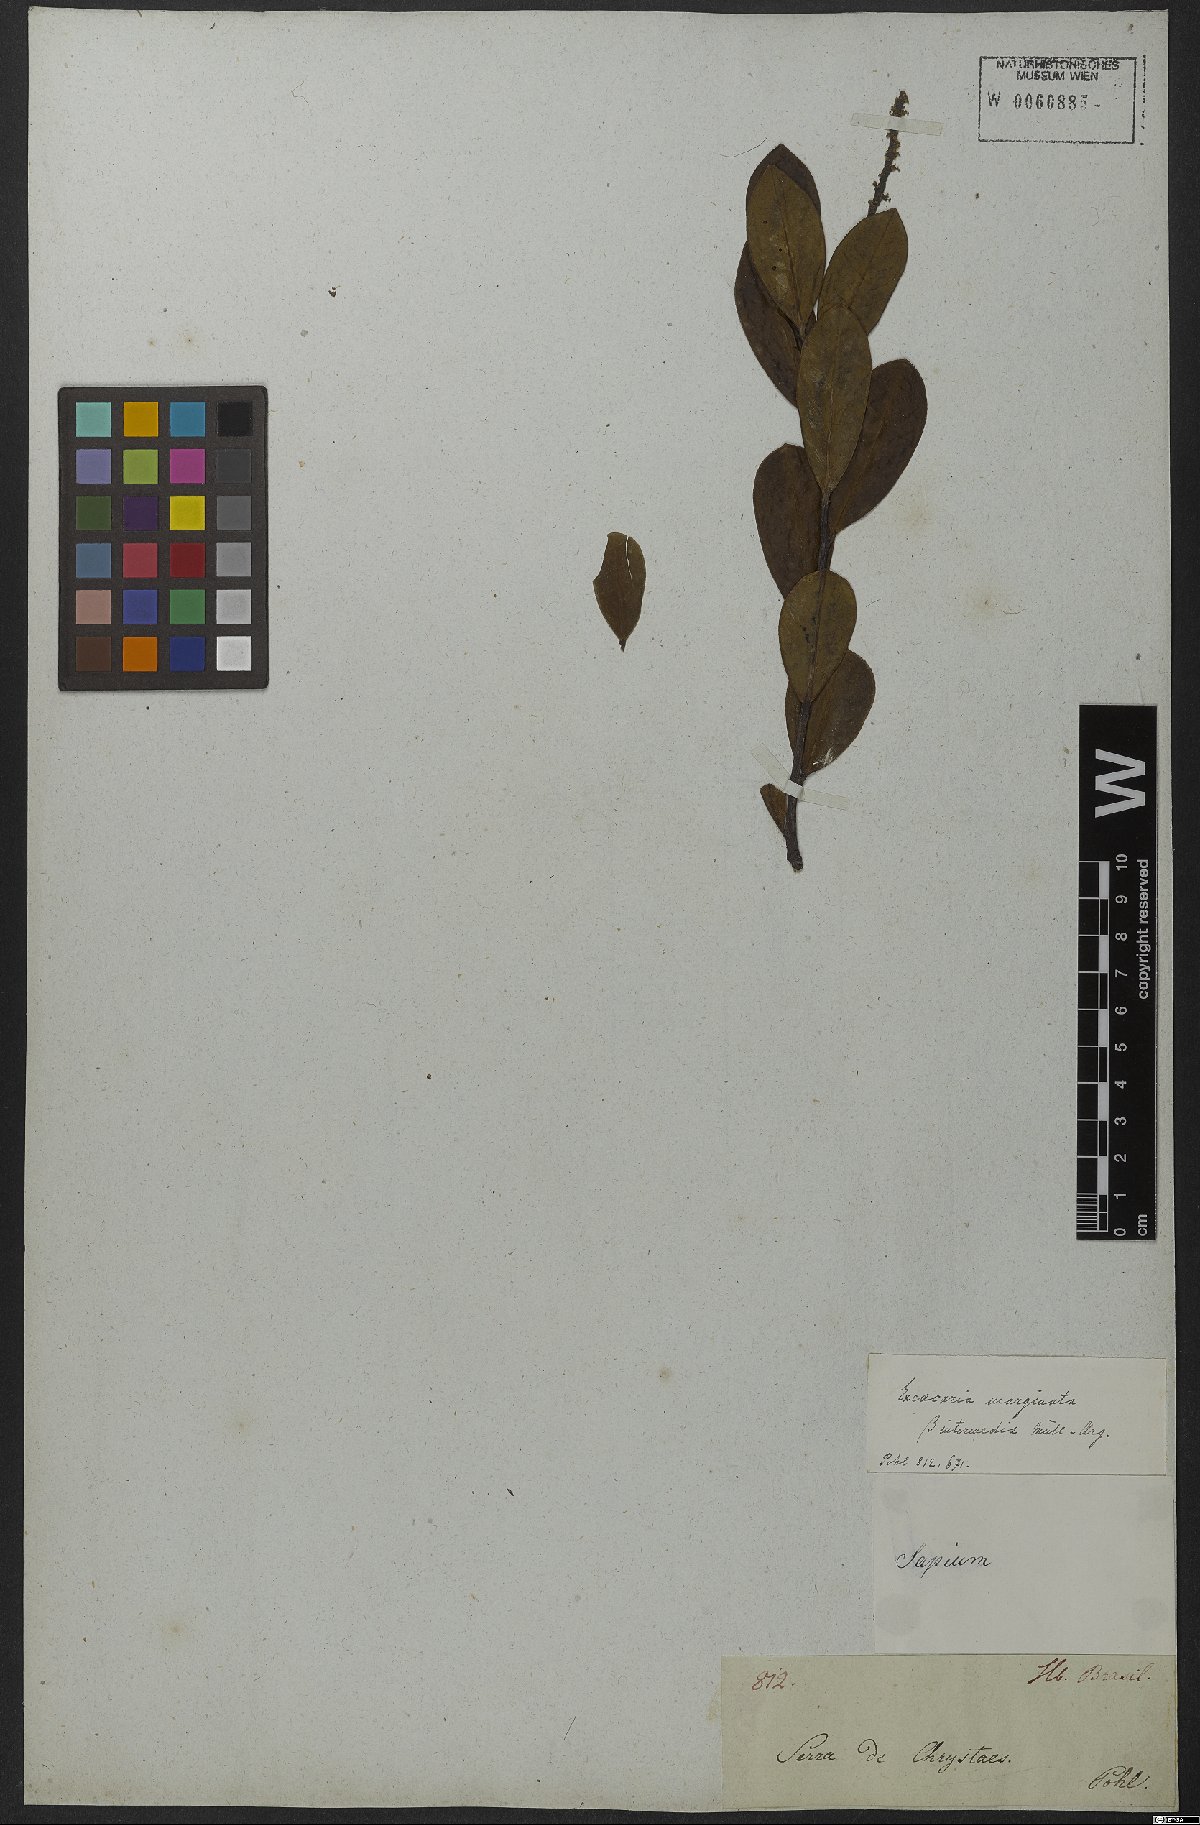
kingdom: Plantae
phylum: Tracheophyta
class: Magnoliopsida
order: Malpighiales
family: Euphorbiaceae
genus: Sapium
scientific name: Sapium obovatum
